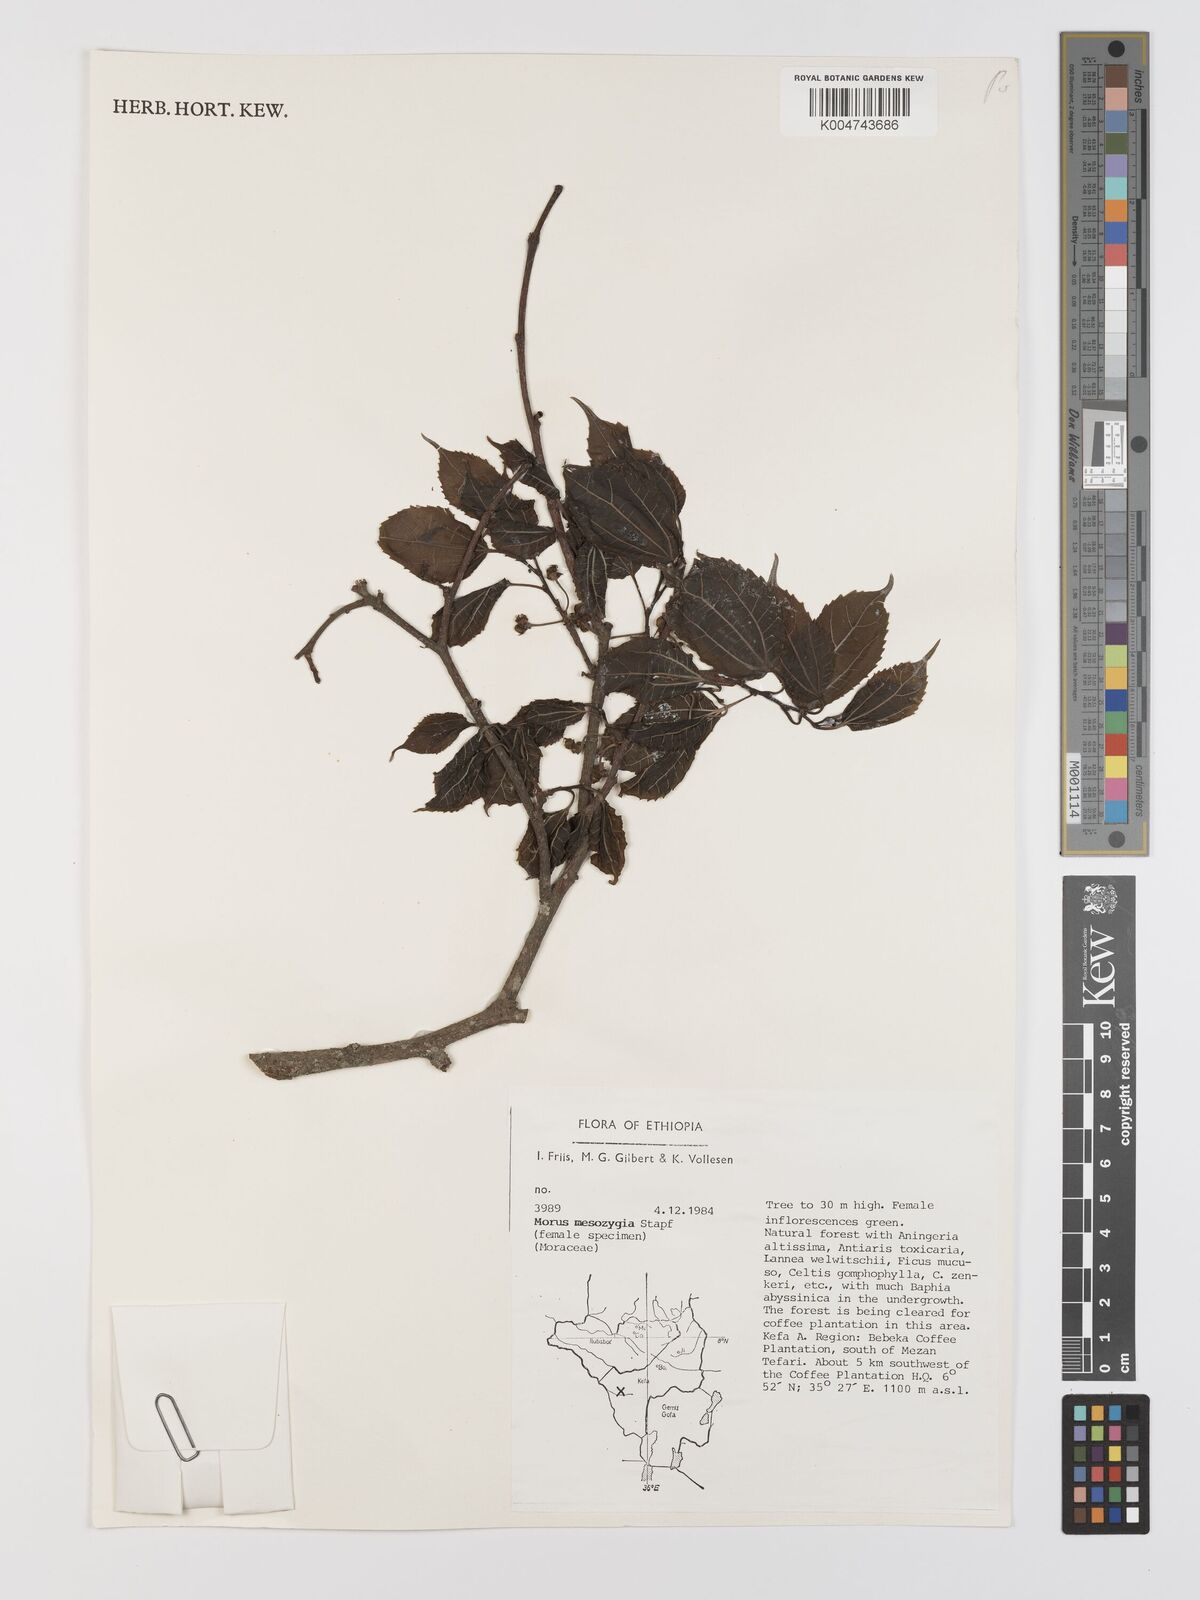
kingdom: Plantae
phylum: Tracheophyta
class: Magnoliopsida
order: Rosales
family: Moraceae
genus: Afromorus
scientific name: Afromorus mesozygia
